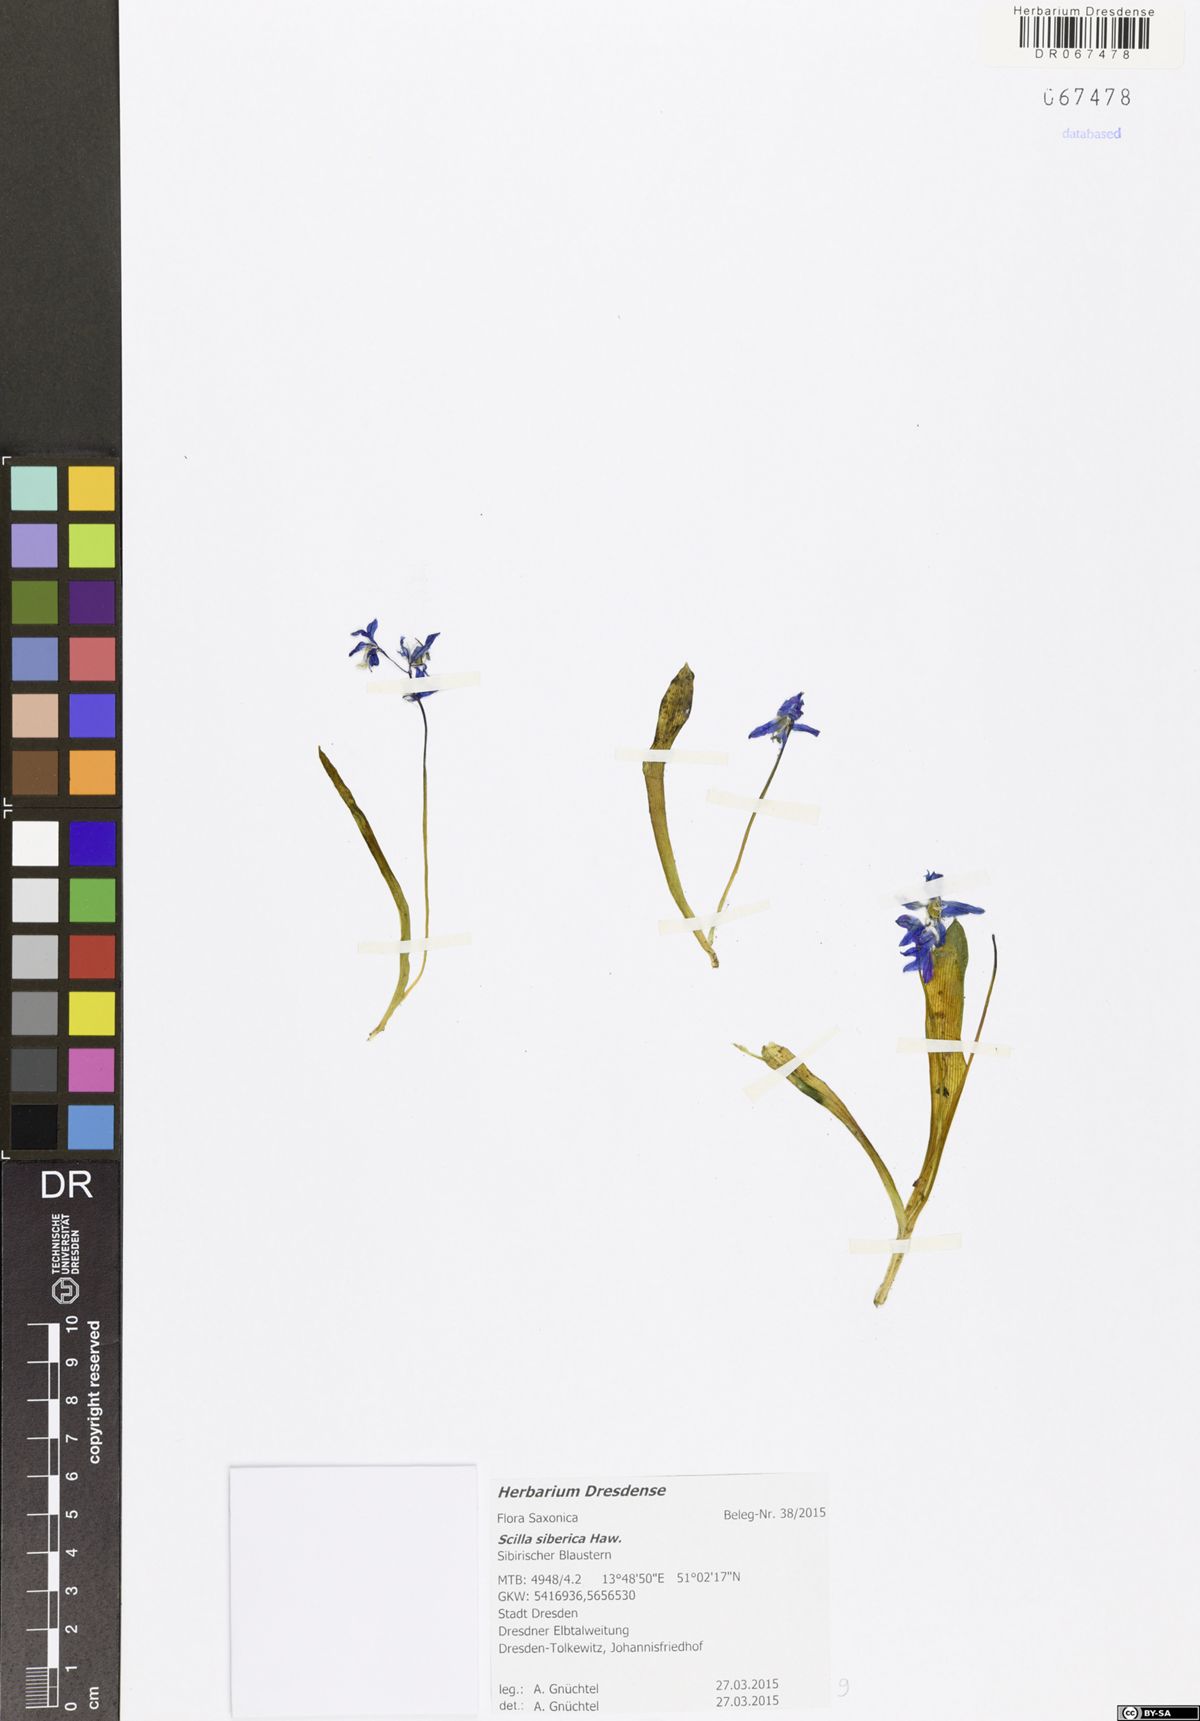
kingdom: Plantae
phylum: Tracheophyta
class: Liliopsida
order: Asparagales
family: Asparagaceae
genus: Scilla
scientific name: Scilla siberica
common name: Siberian squill
